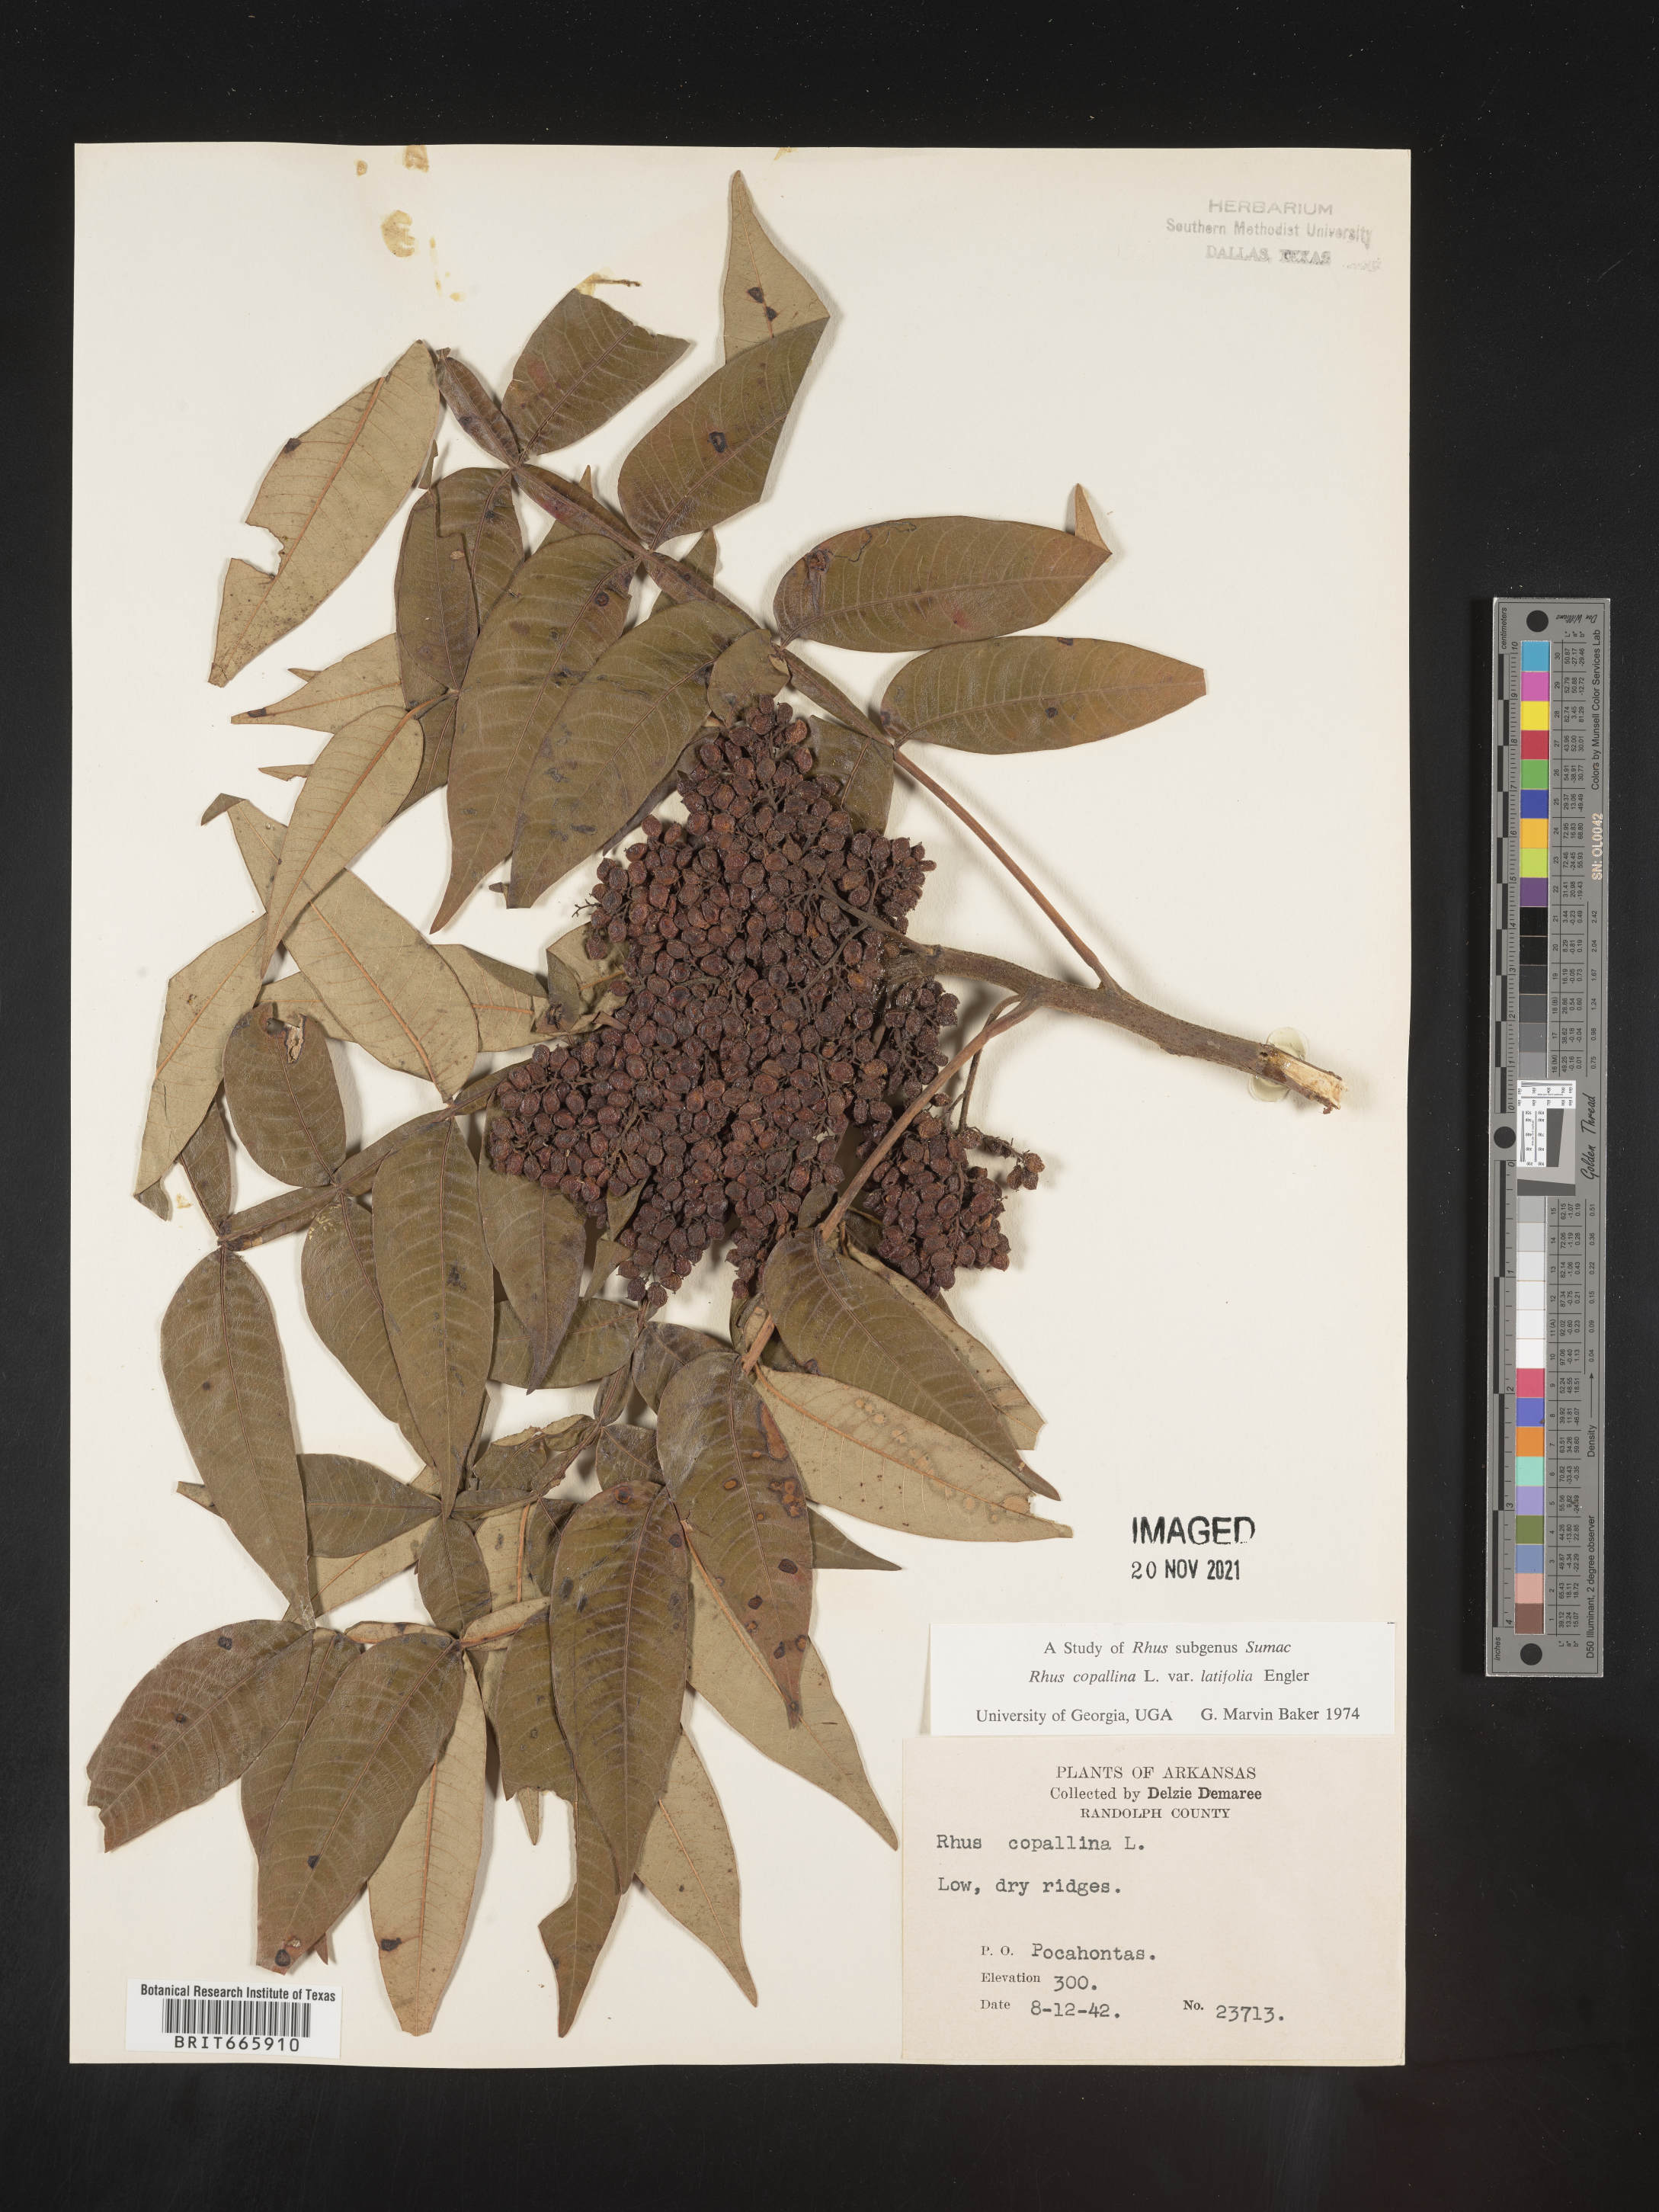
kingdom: Plantae
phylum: Tracheophyta
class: Magnoliopsida
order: Sapindales
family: Anacardiaceae
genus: Rhus
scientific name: Rhus copallina
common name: Shining sumac
